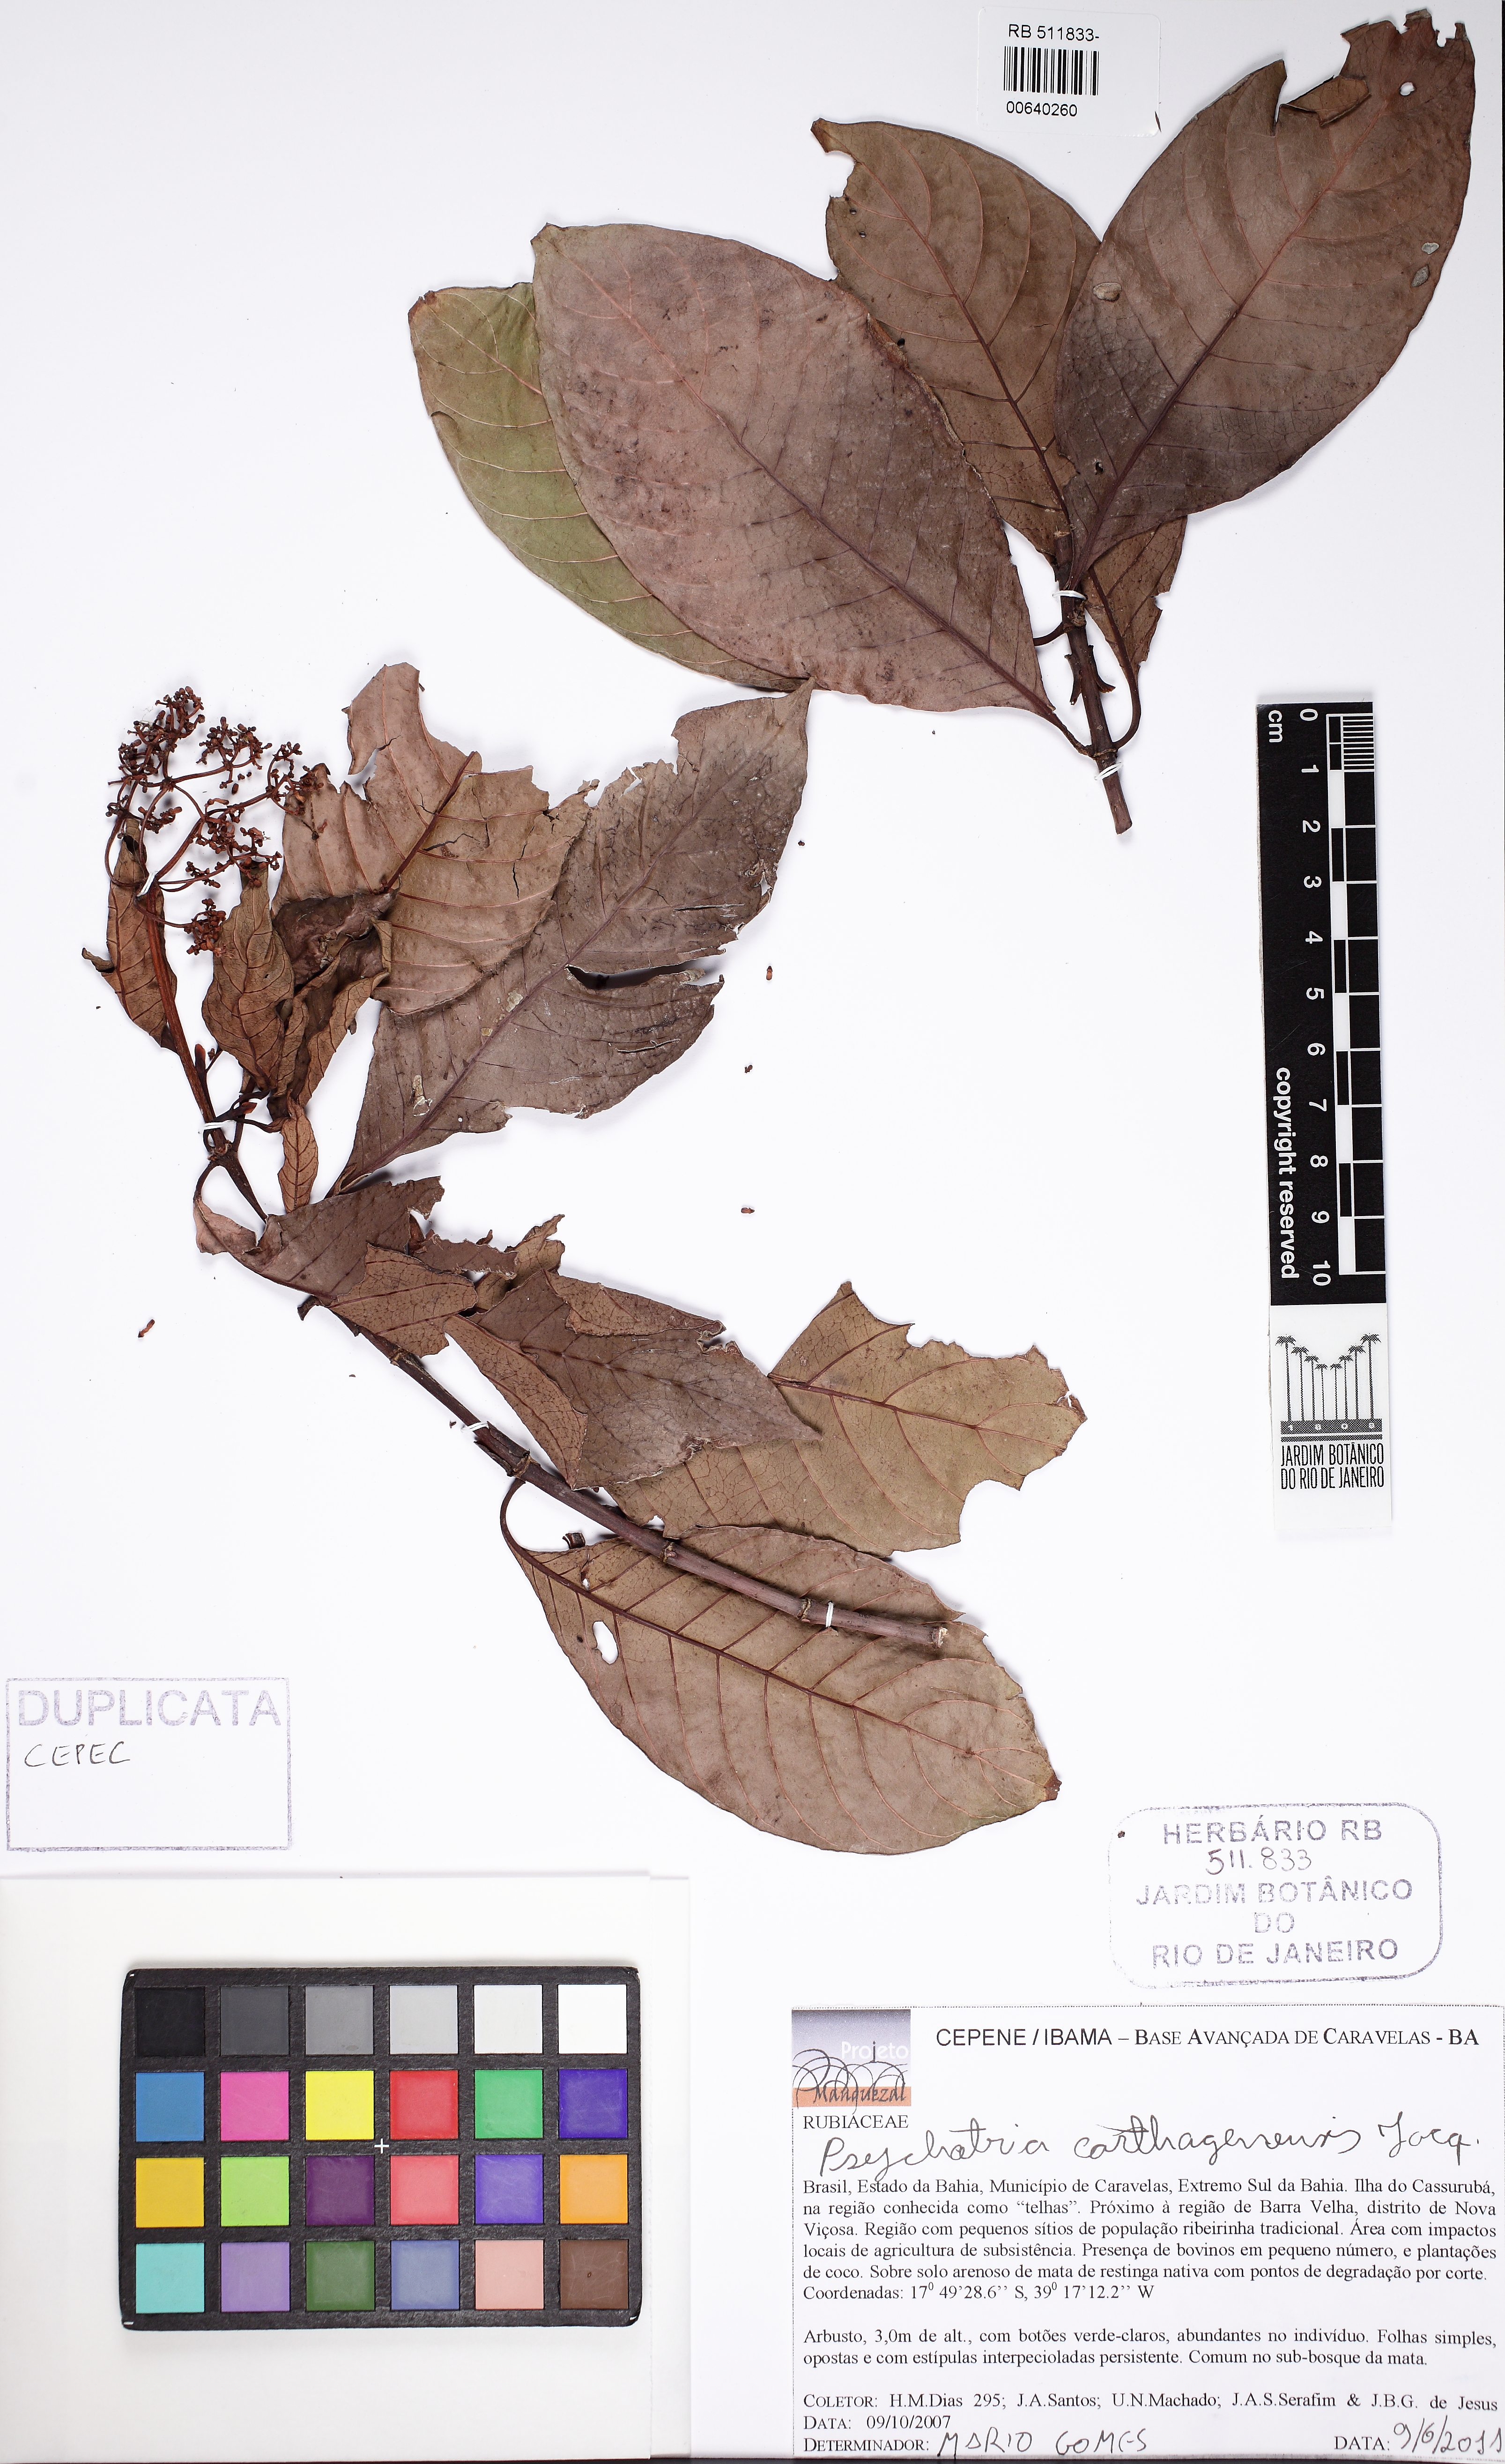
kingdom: Plantae
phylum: Tracheophyta
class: Magnoliopsida
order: Gentianales
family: Rubiaceae
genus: Psychotria
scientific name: Psychotria carthagenensis
